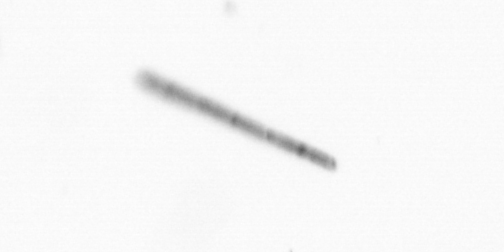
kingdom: Chromista
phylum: Ochrophyta
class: Bacillariophyceae
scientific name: Bacillariophyceae
